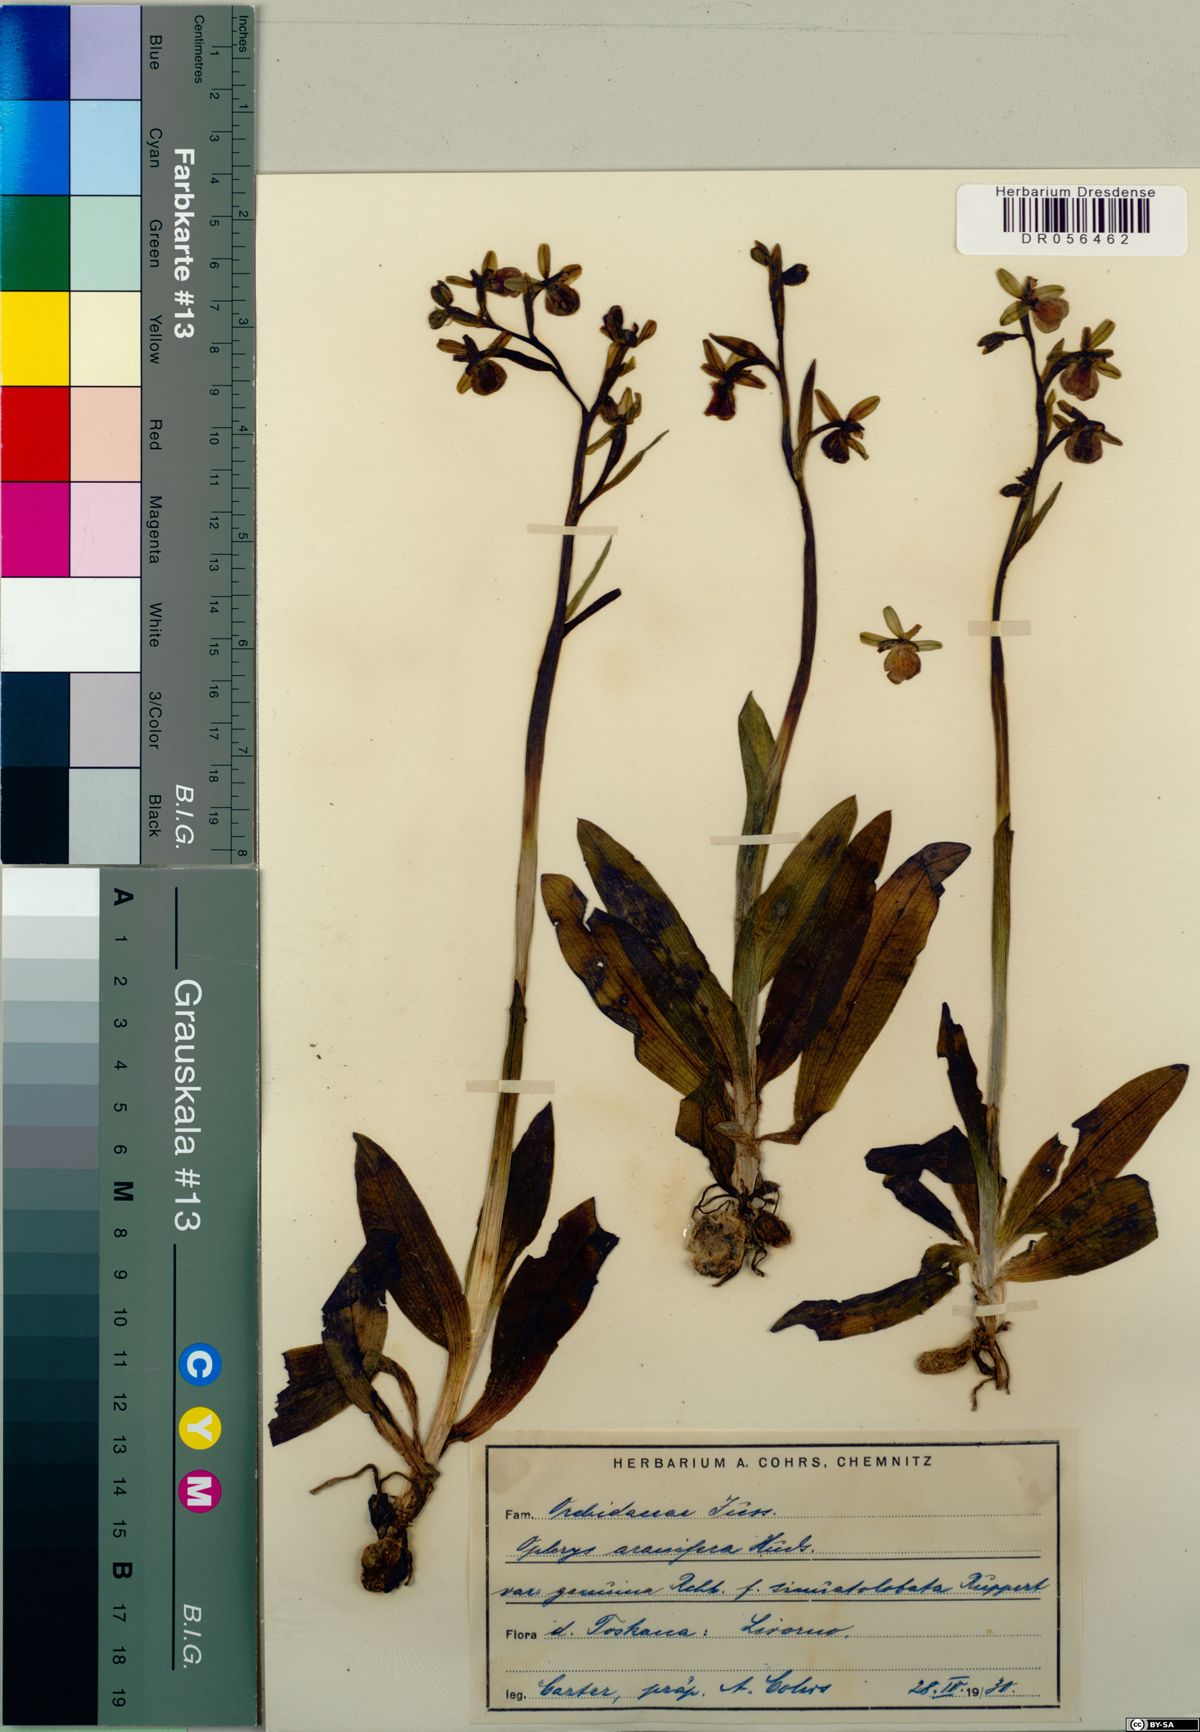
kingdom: Plantae
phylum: Tracheophyta
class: Liliopsida
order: Asparagales
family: Orchidaceae
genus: Ophrys
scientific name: Ophrys sphegodes
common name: Early spider-orchid
